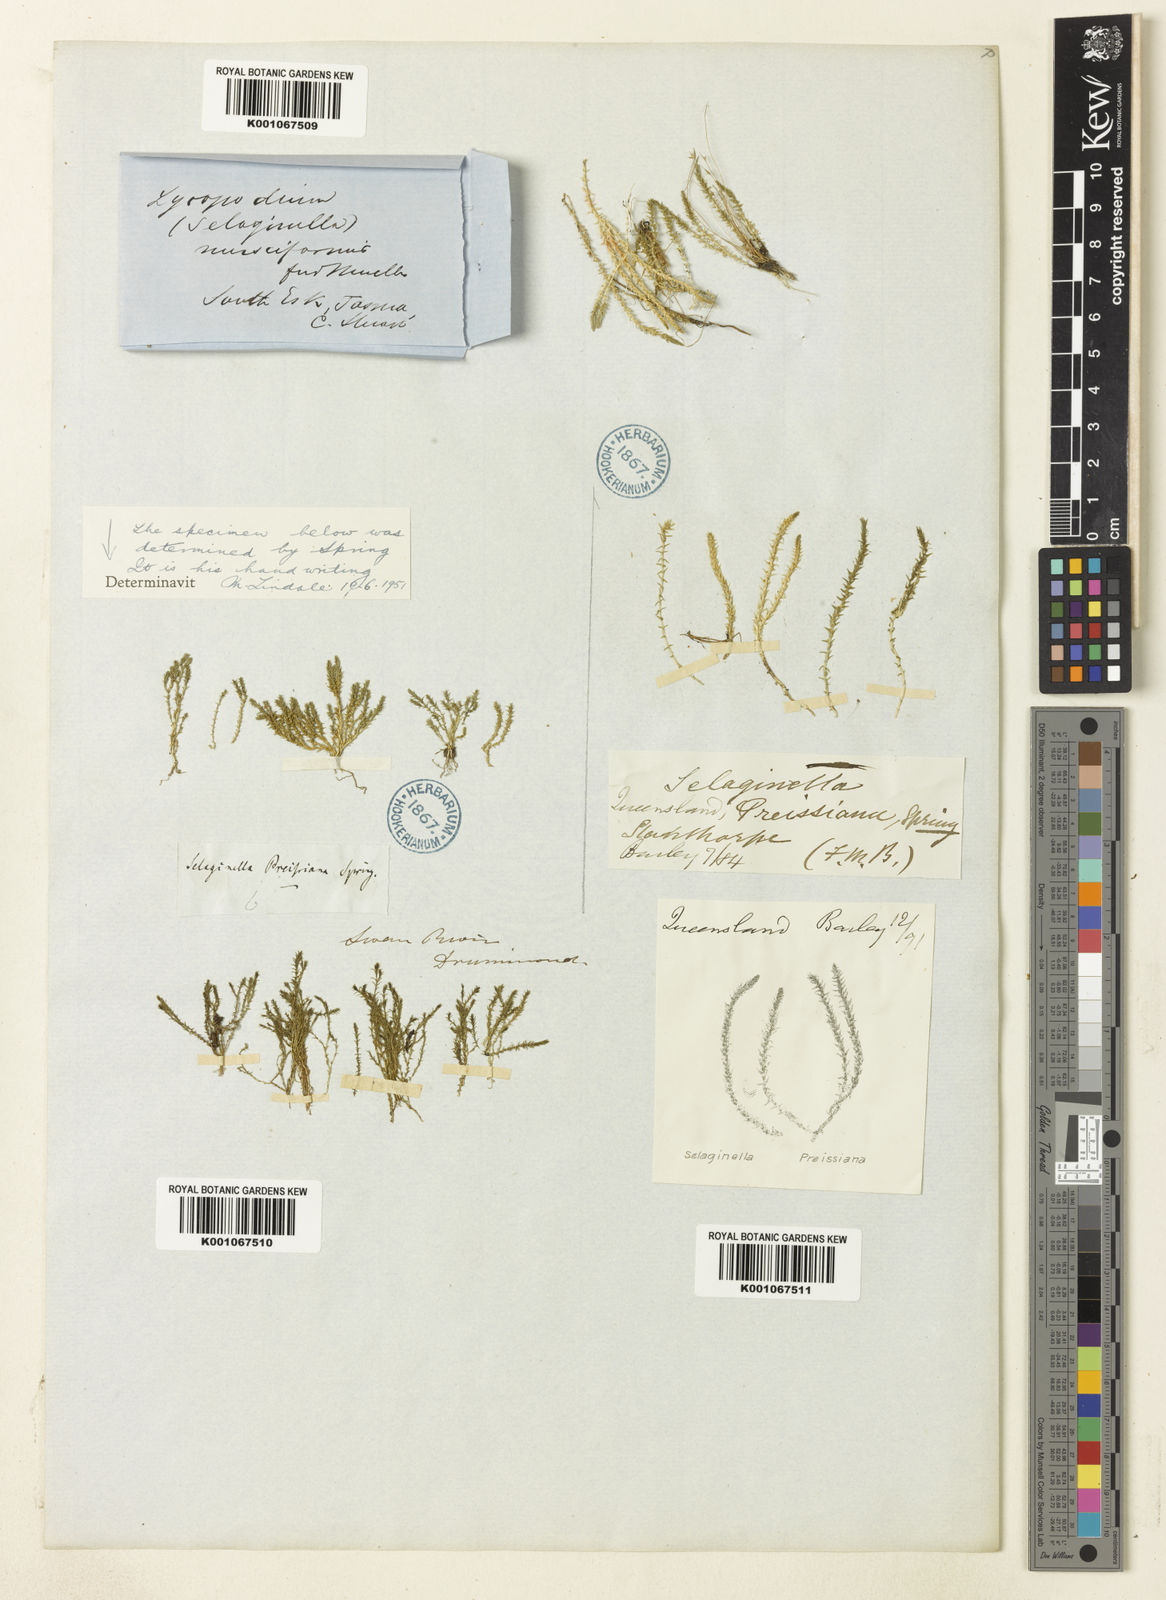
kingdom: Plantae
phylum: Tracheophyta
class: Lycopodiopsida
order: Selaginellales
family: Selaginellaceae
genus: Selaginella
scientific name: Selaginella
